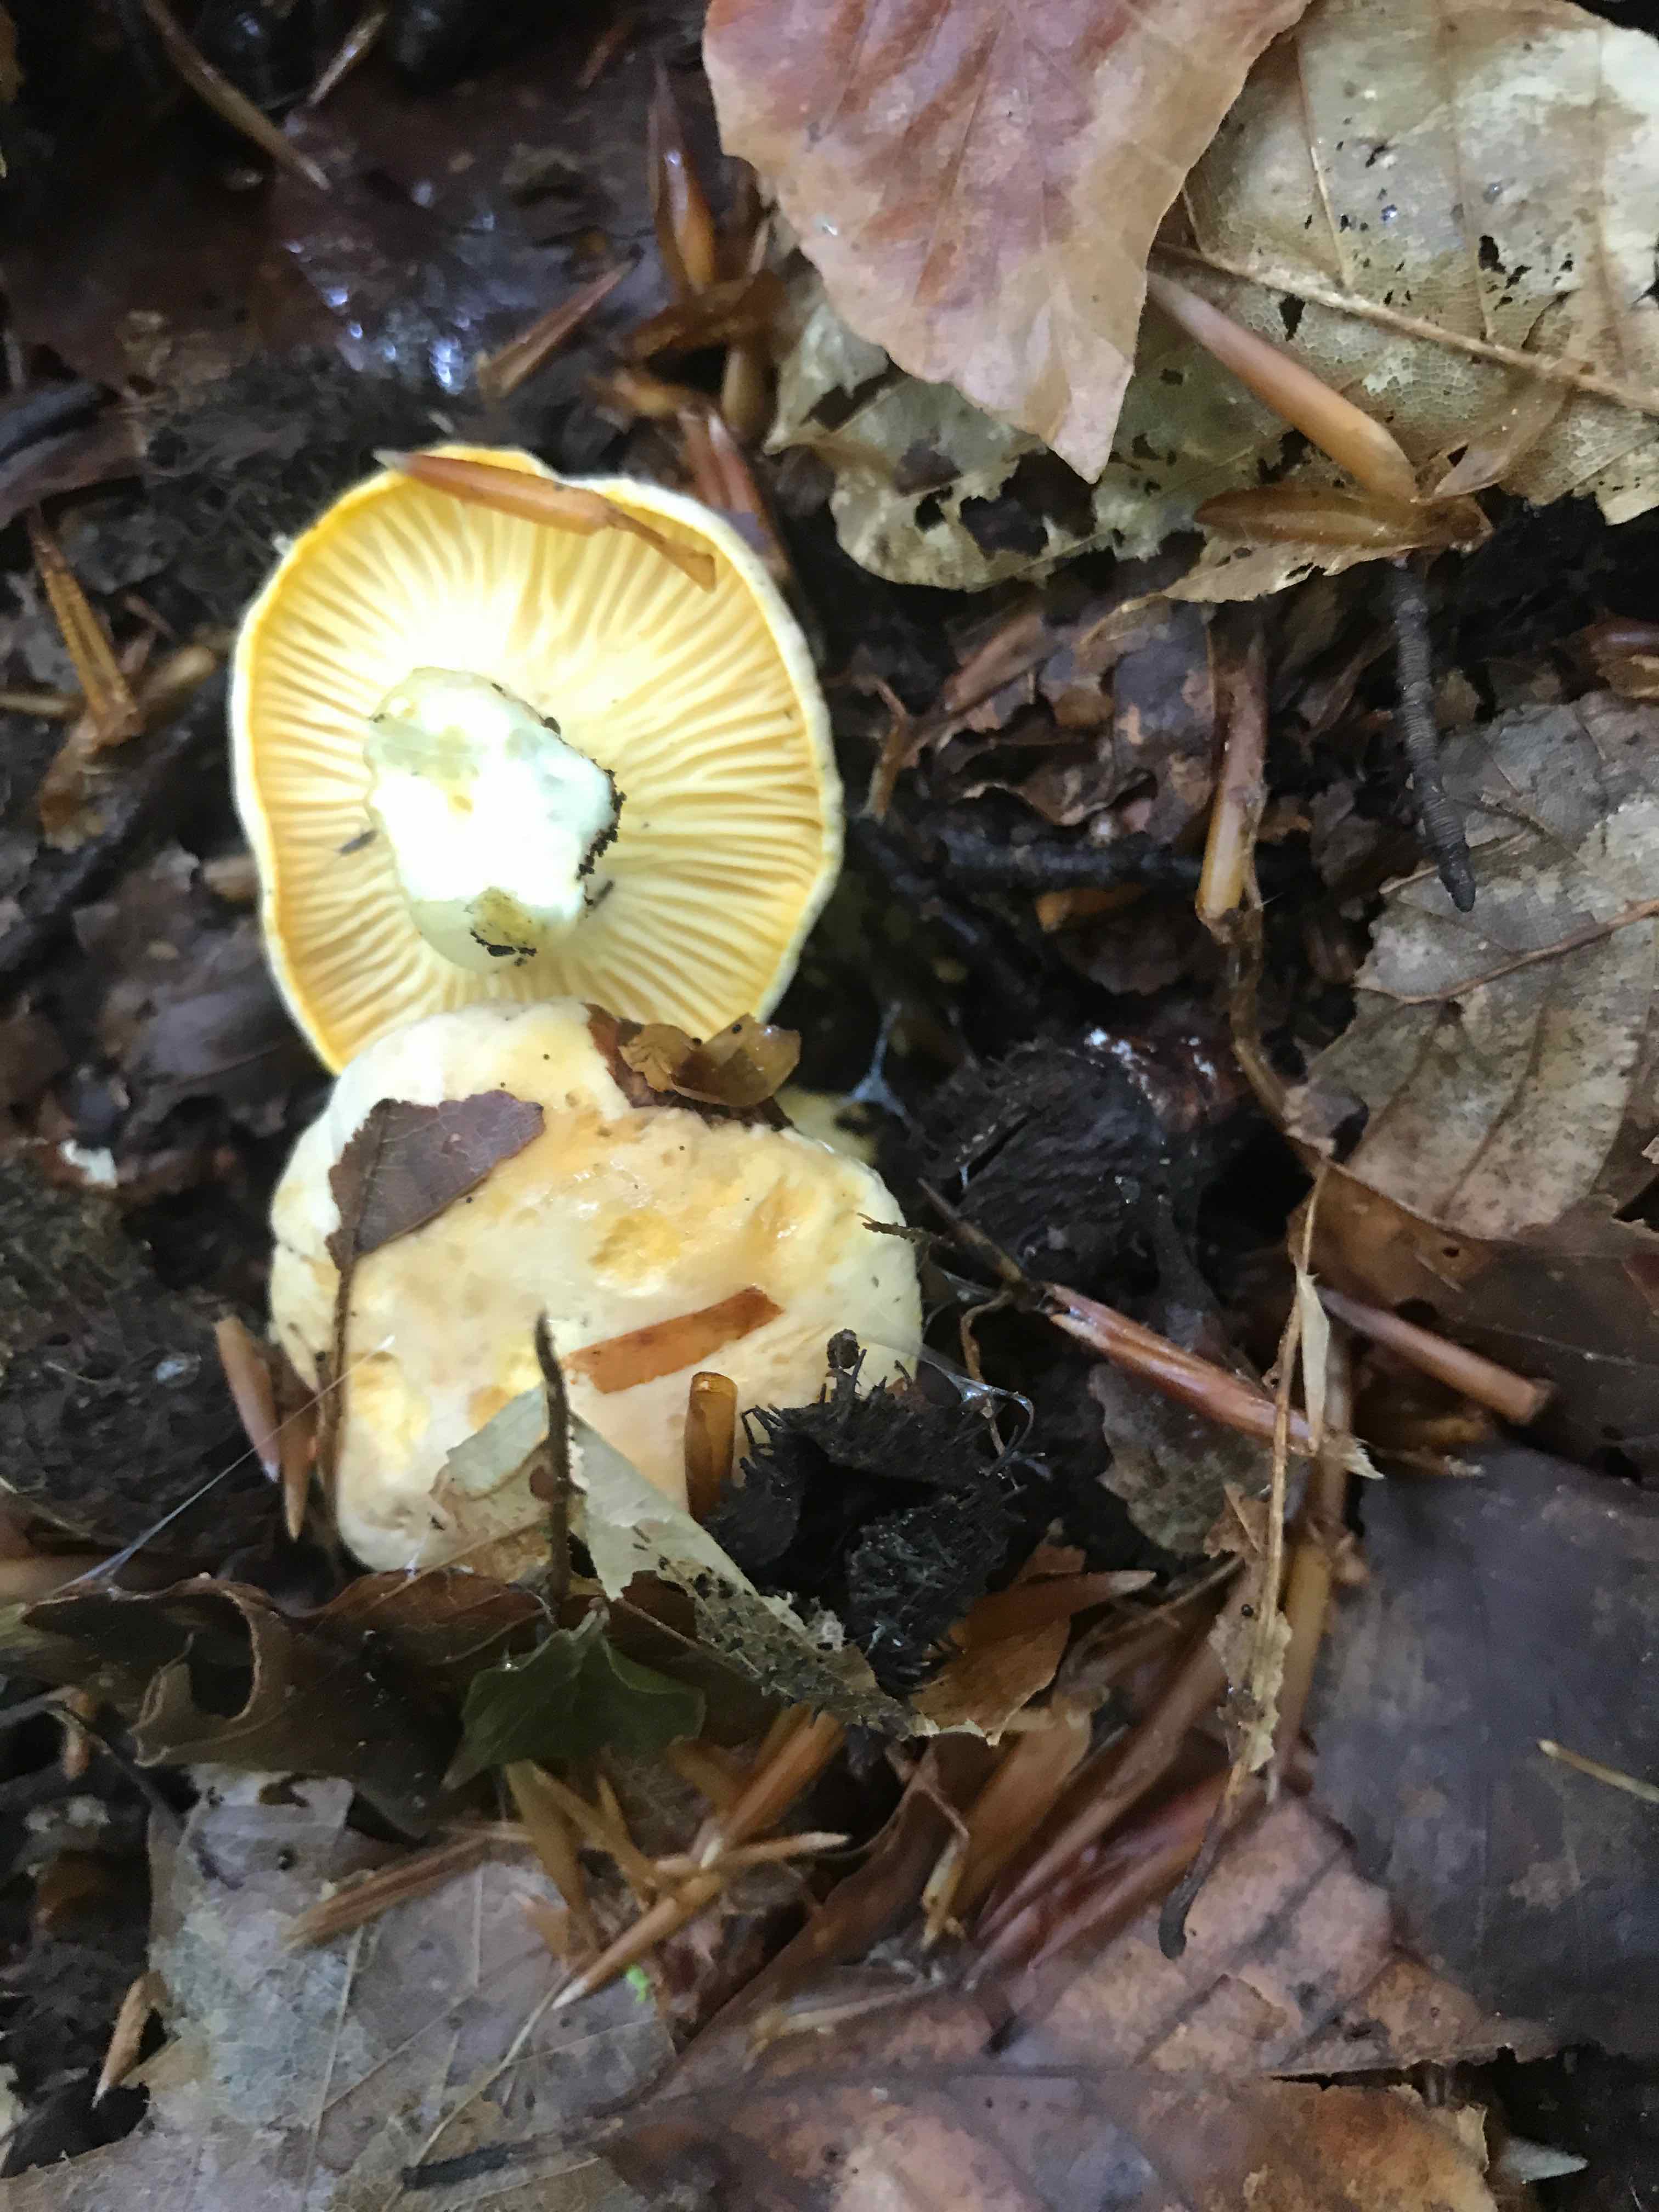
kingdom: Fungi
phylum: Basidiomycota
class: Agaricomycetes
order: Cantharellales
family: Hydnaceae
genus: Cantharellus
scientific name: Cantharellus pallens
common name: bleg kantarel
